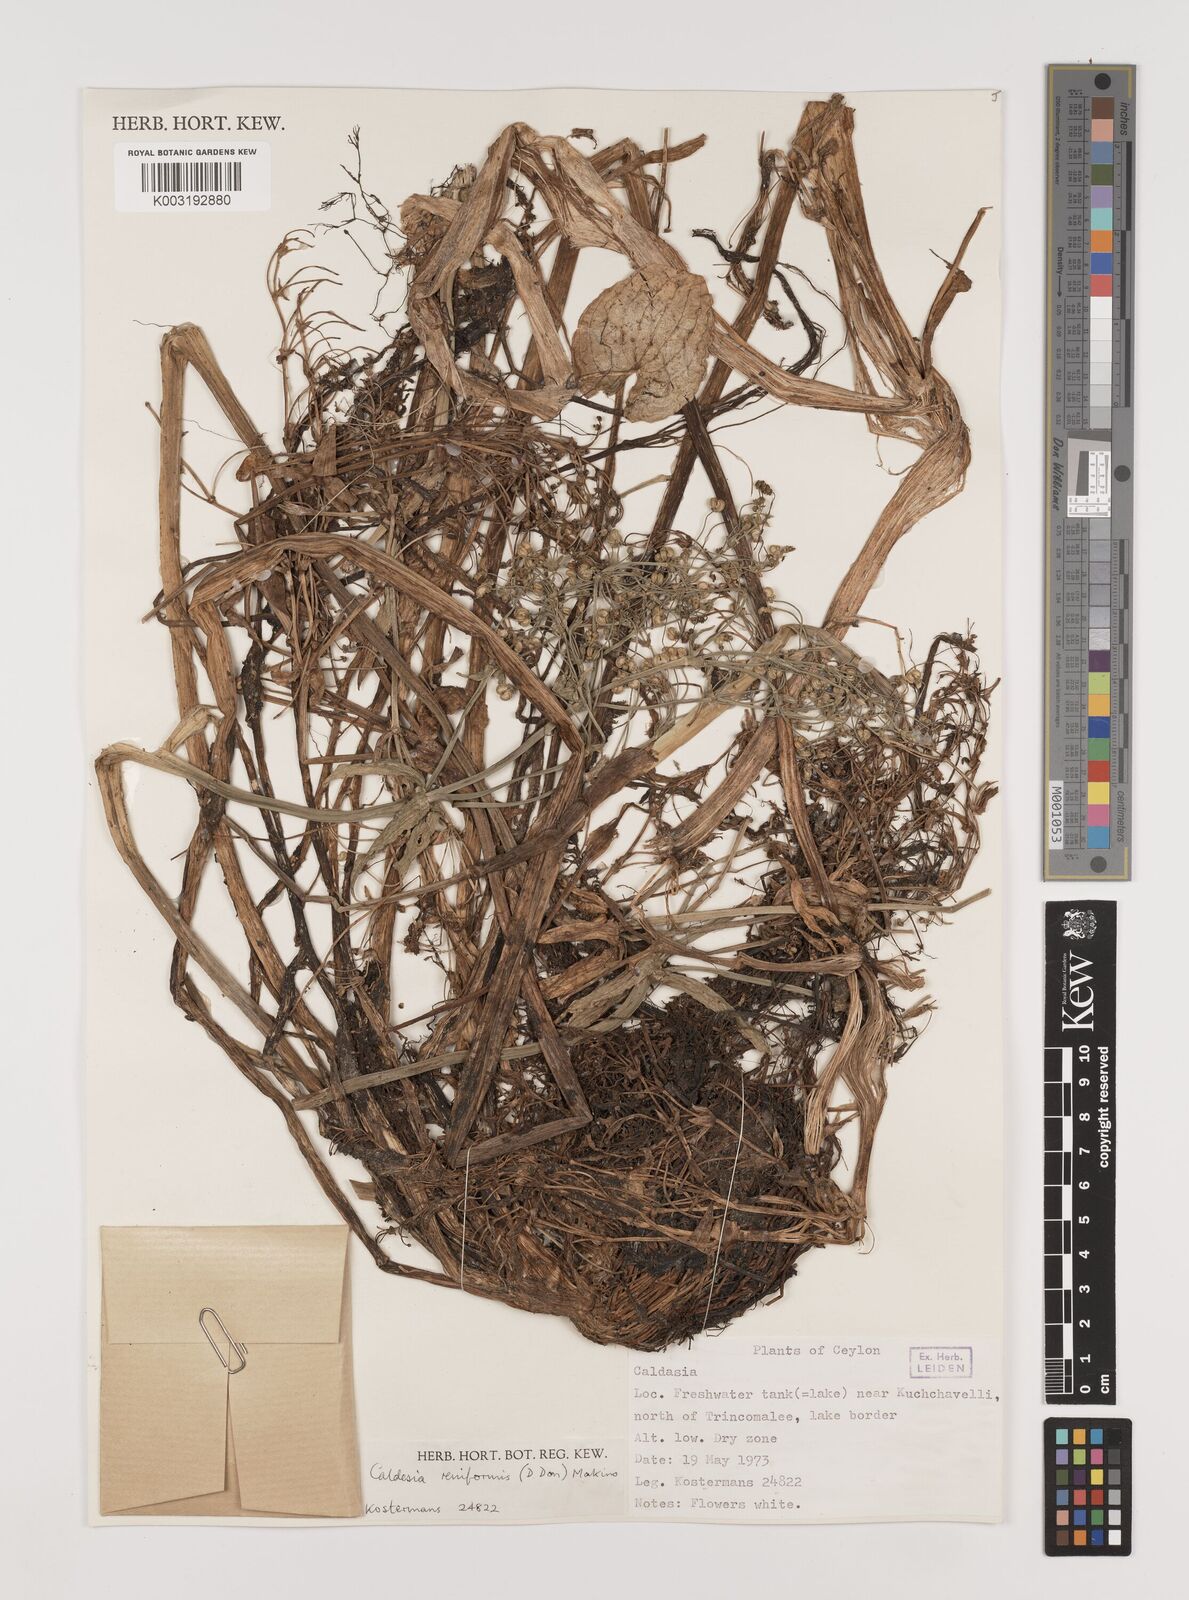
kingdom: Plantae
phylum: Tracheophyta
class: Liliopsida
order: Alismatales
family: Alismataceae
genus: Caldesia
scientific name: Caldesia parnassifolia
